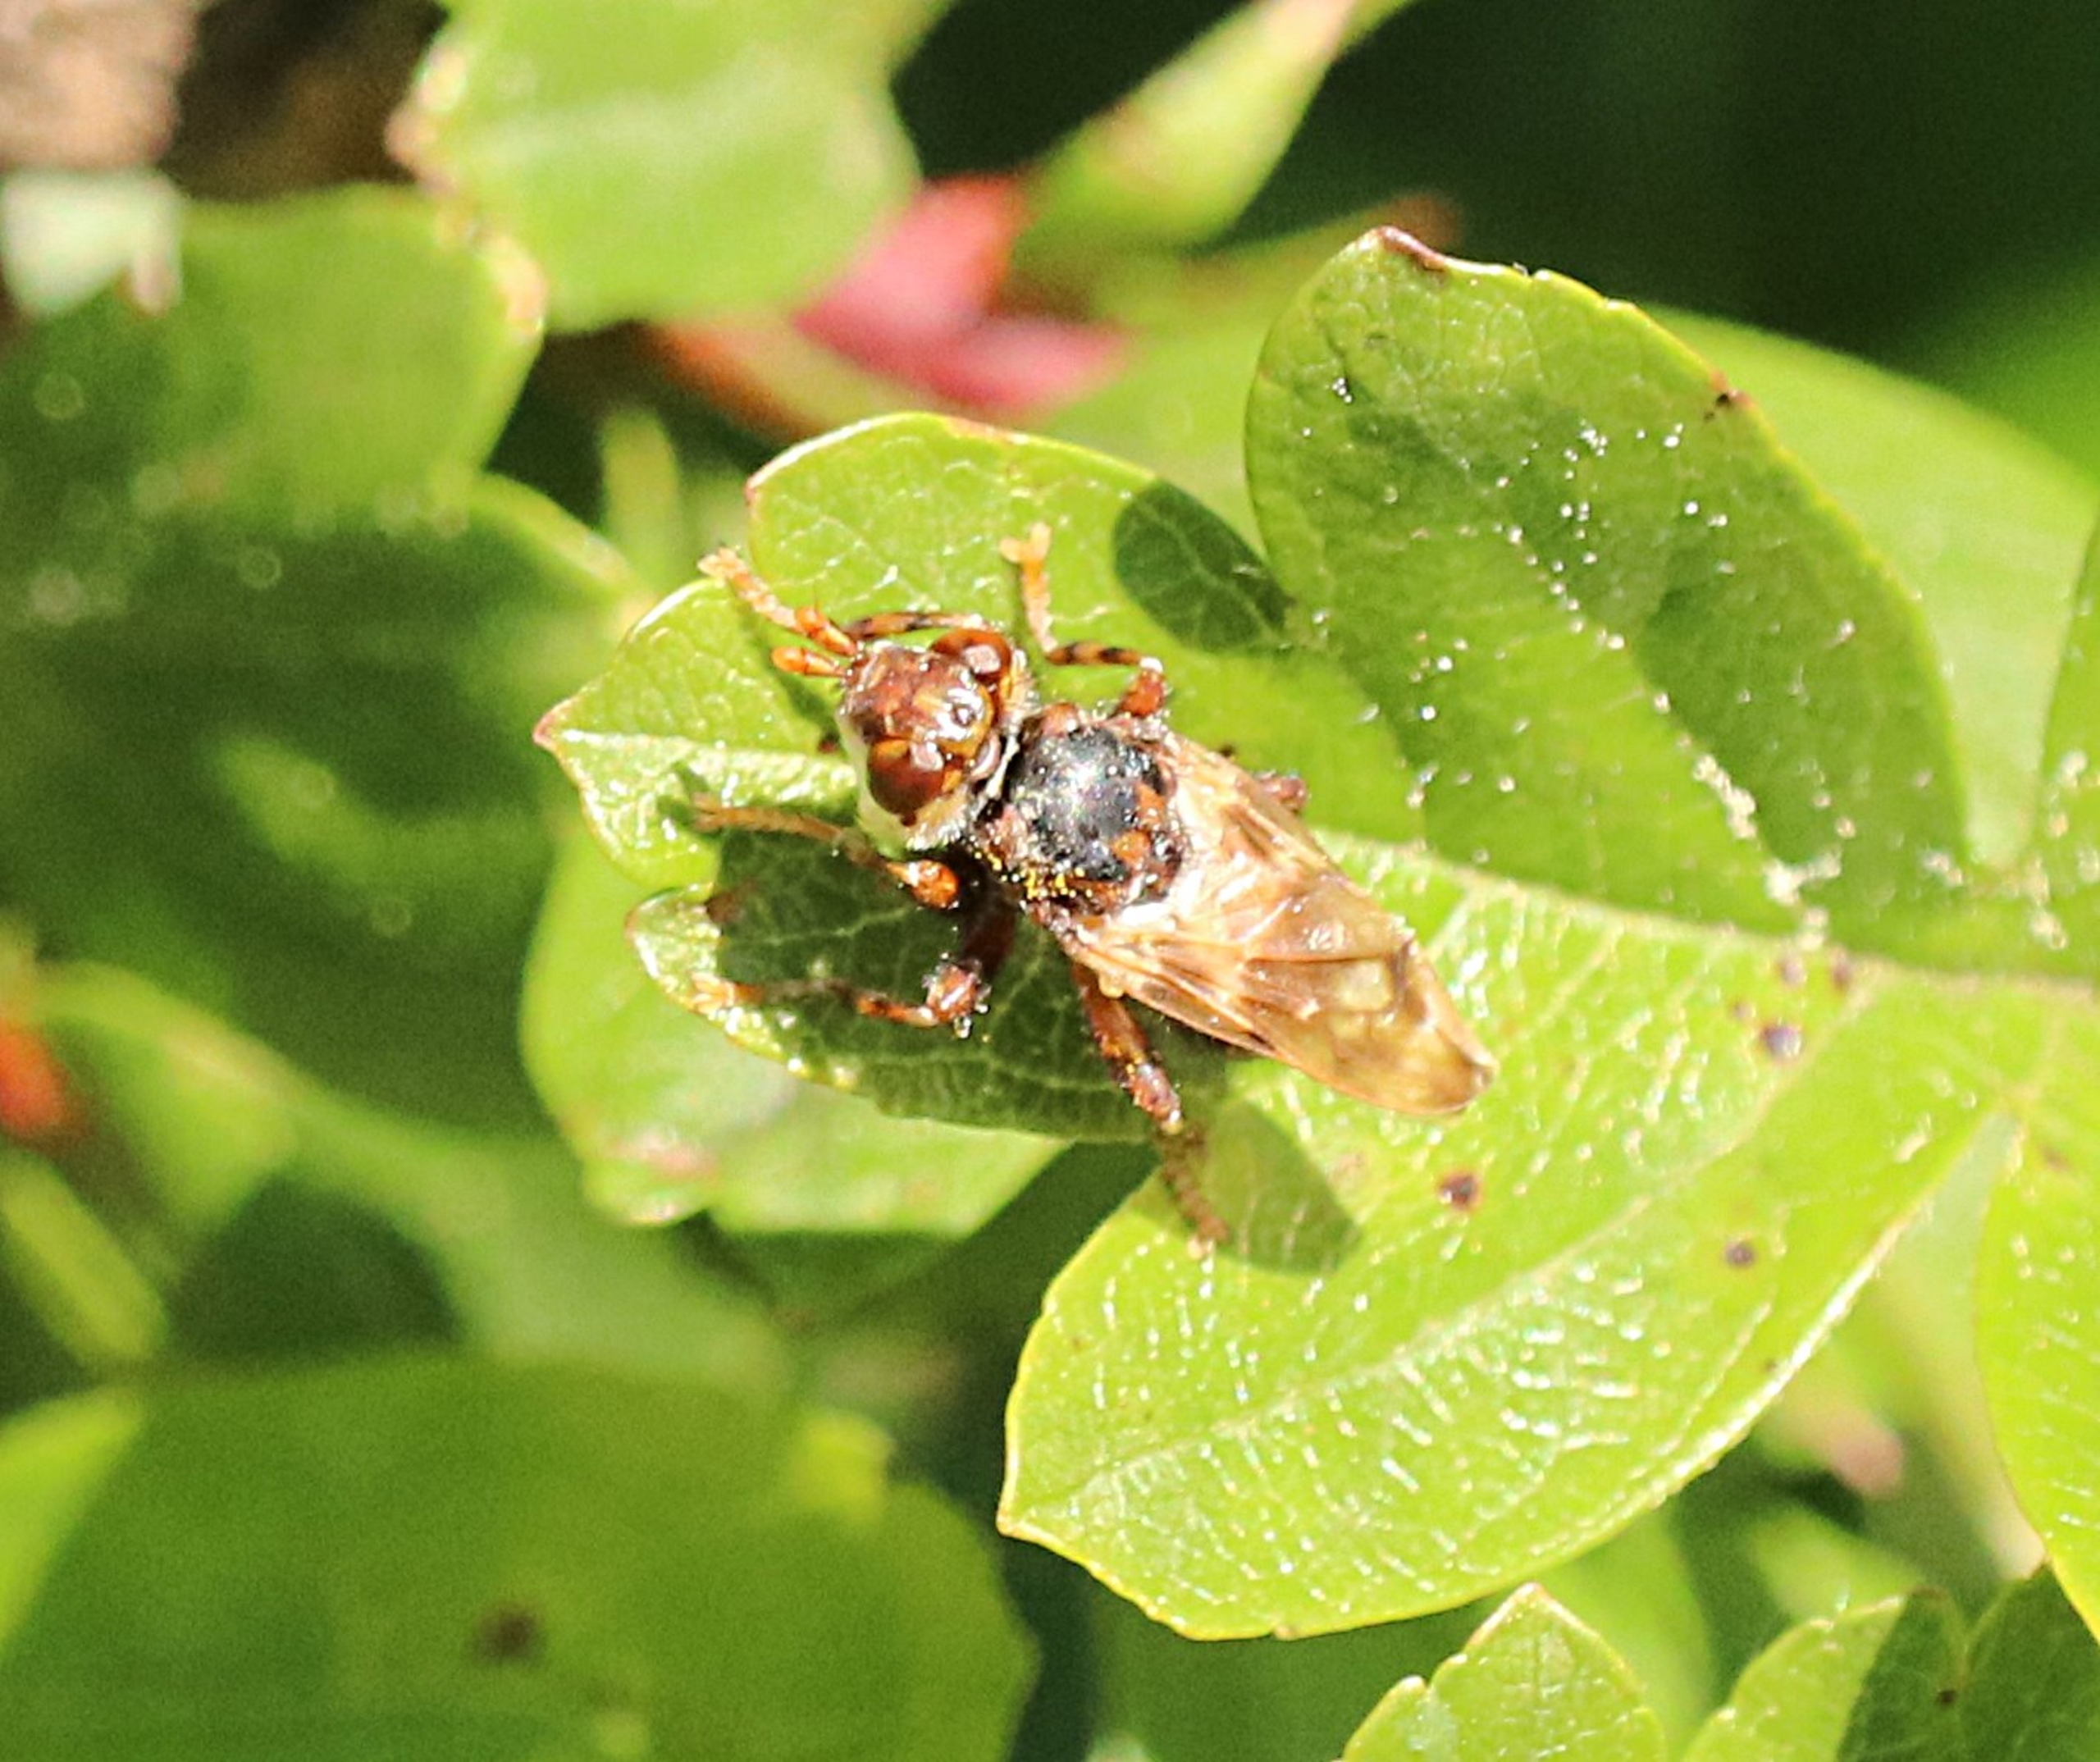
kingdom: Animalia
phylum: Arthropoda
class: Insecta
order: Diptera
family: Conopidae
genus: Myopa
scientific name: Myopa buccata
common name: Brun hvepseflue
